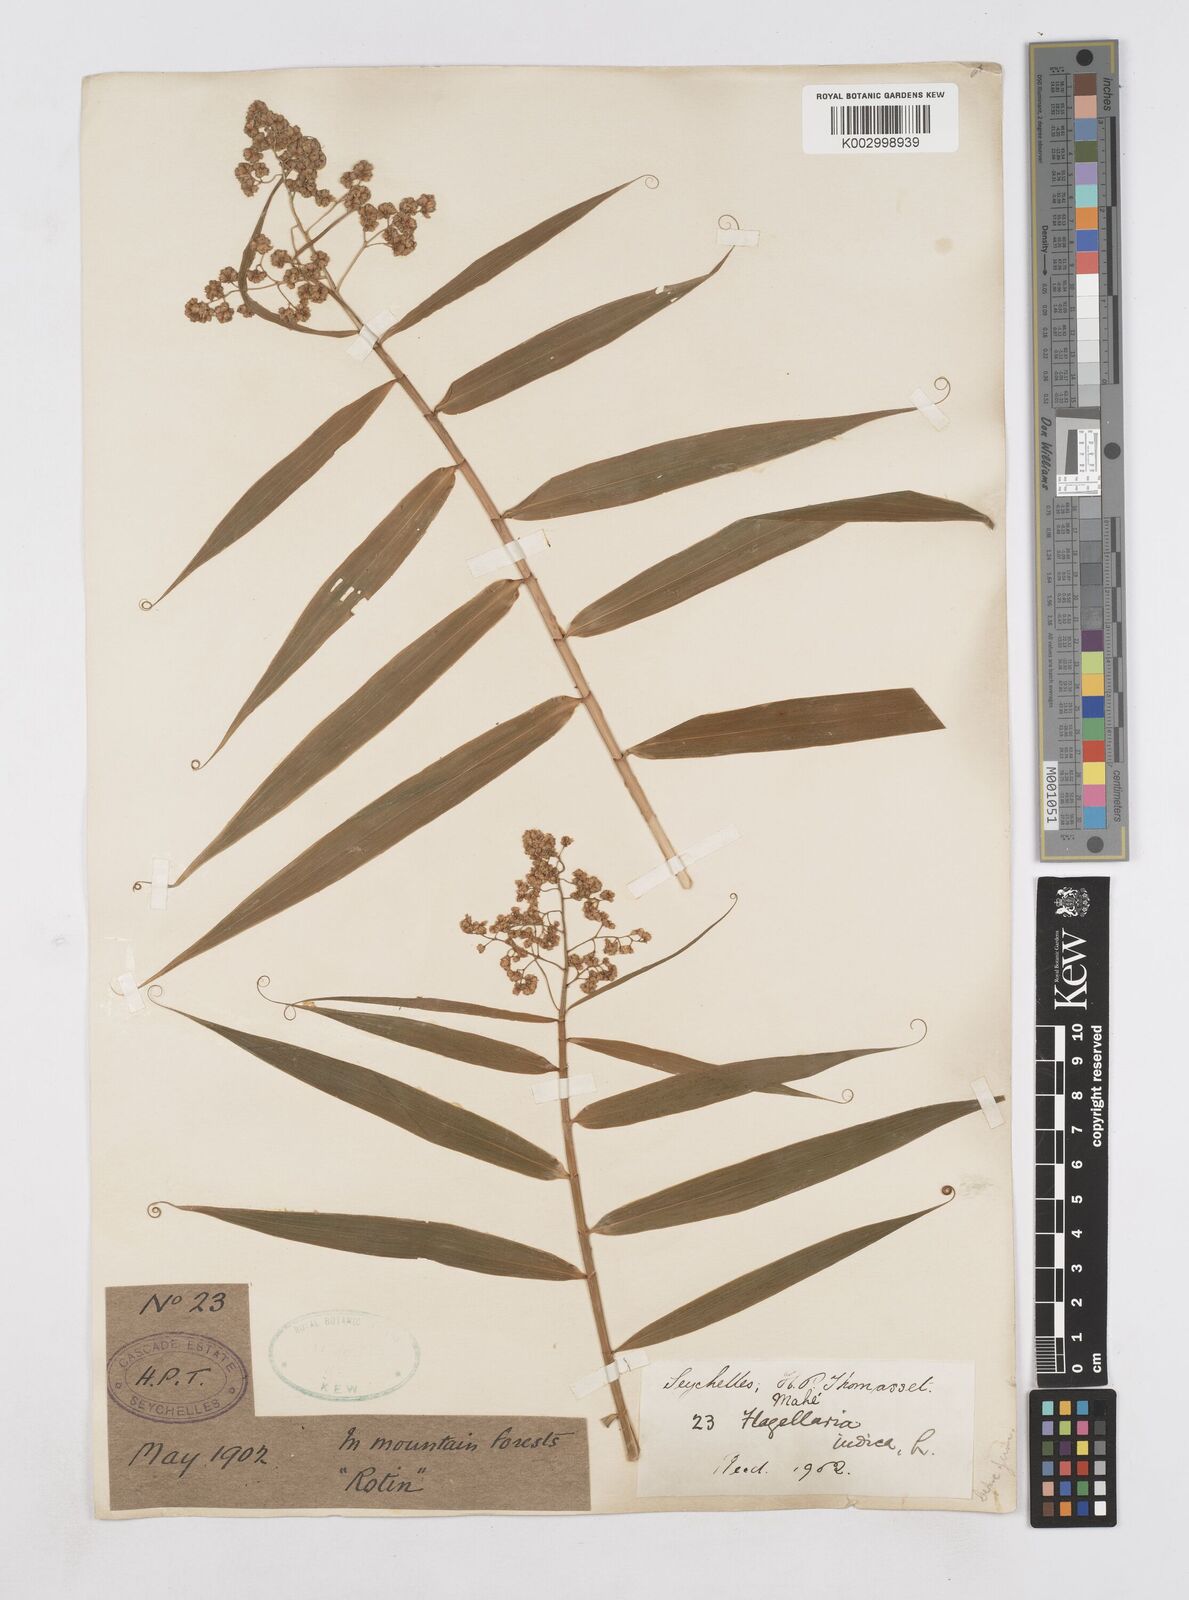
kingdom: Plantae
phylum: Tracheophyta
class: Liliopsida
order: Poales
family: Flagellariaceae
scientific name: Flagellariaceae
